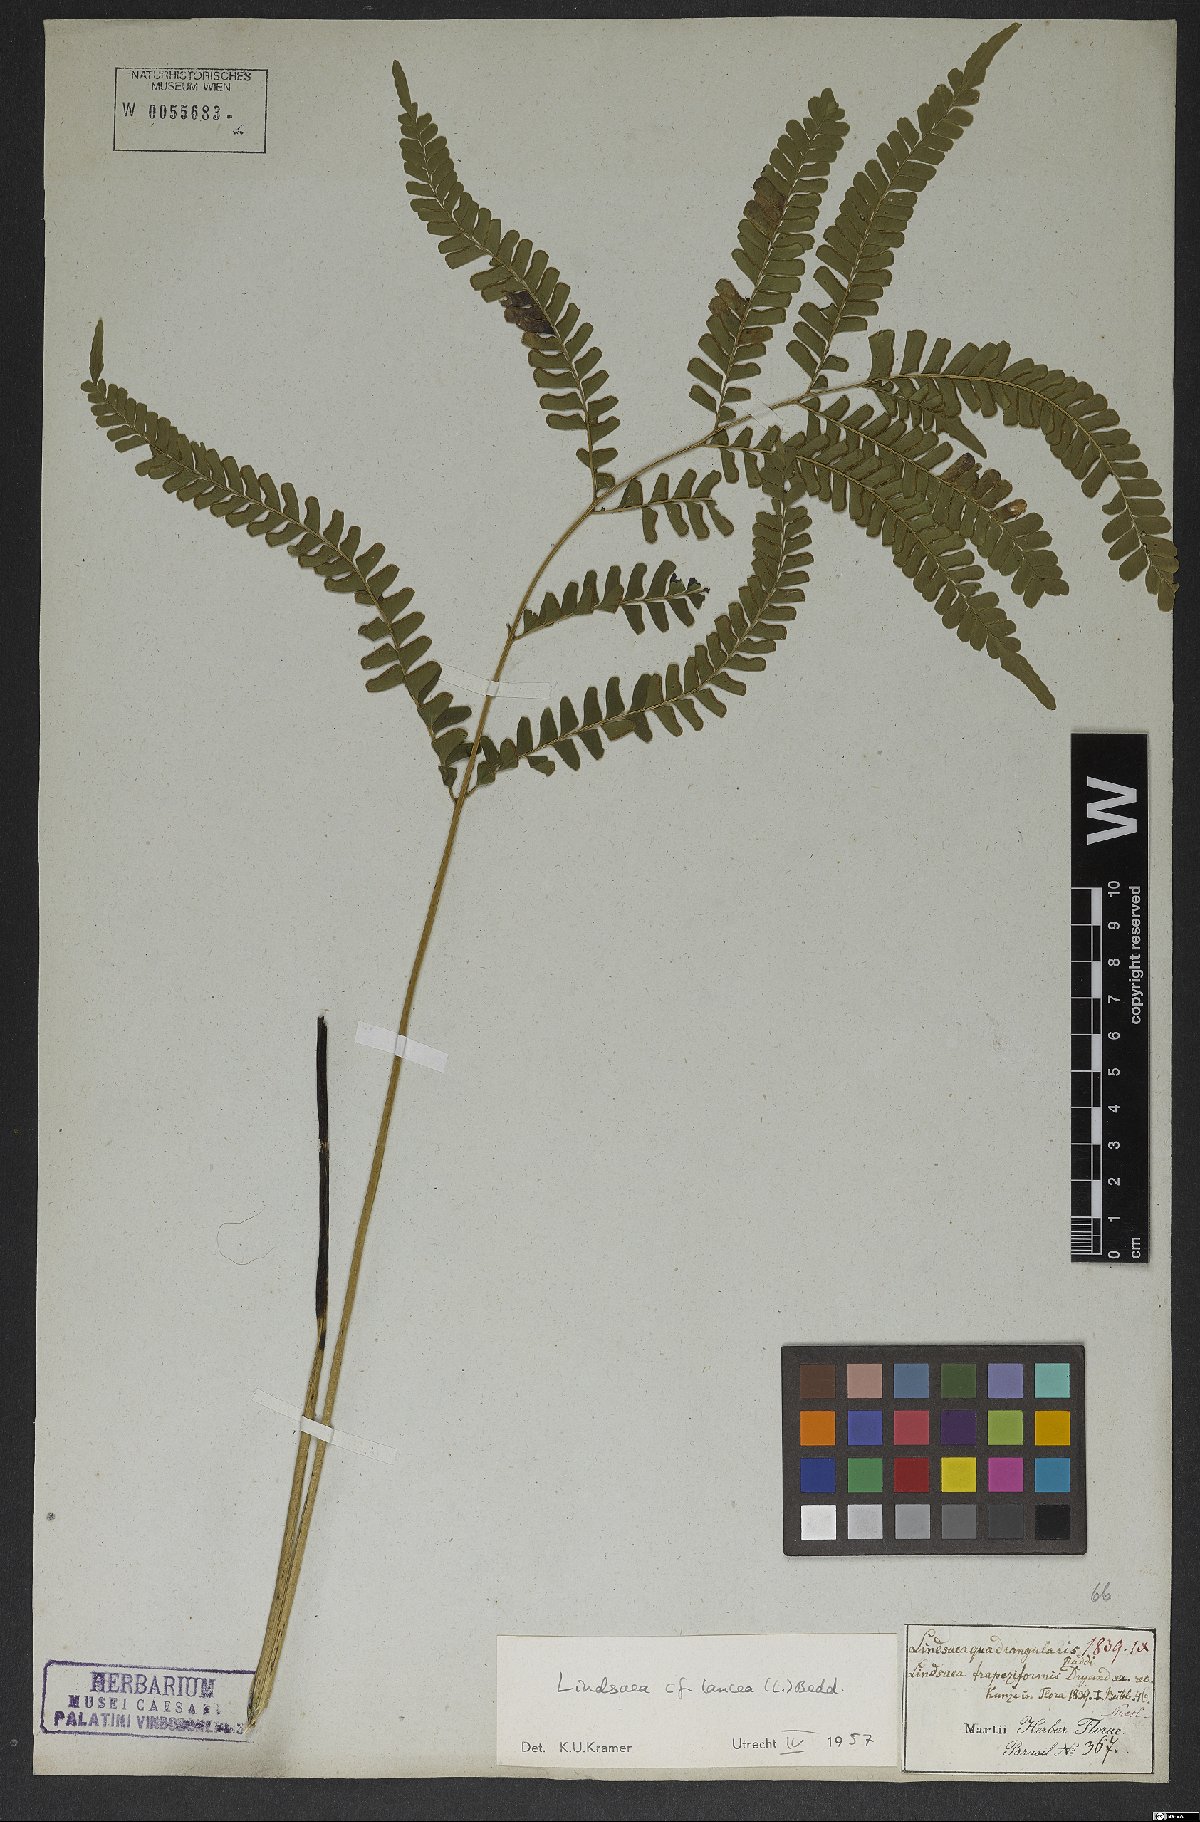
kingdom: Plantae
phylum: Tracheophyta
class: Polypodiopsida
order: Polypodiales
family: Lindsaeaceae
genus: Lindsaea
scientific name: Lindsaea lancea
